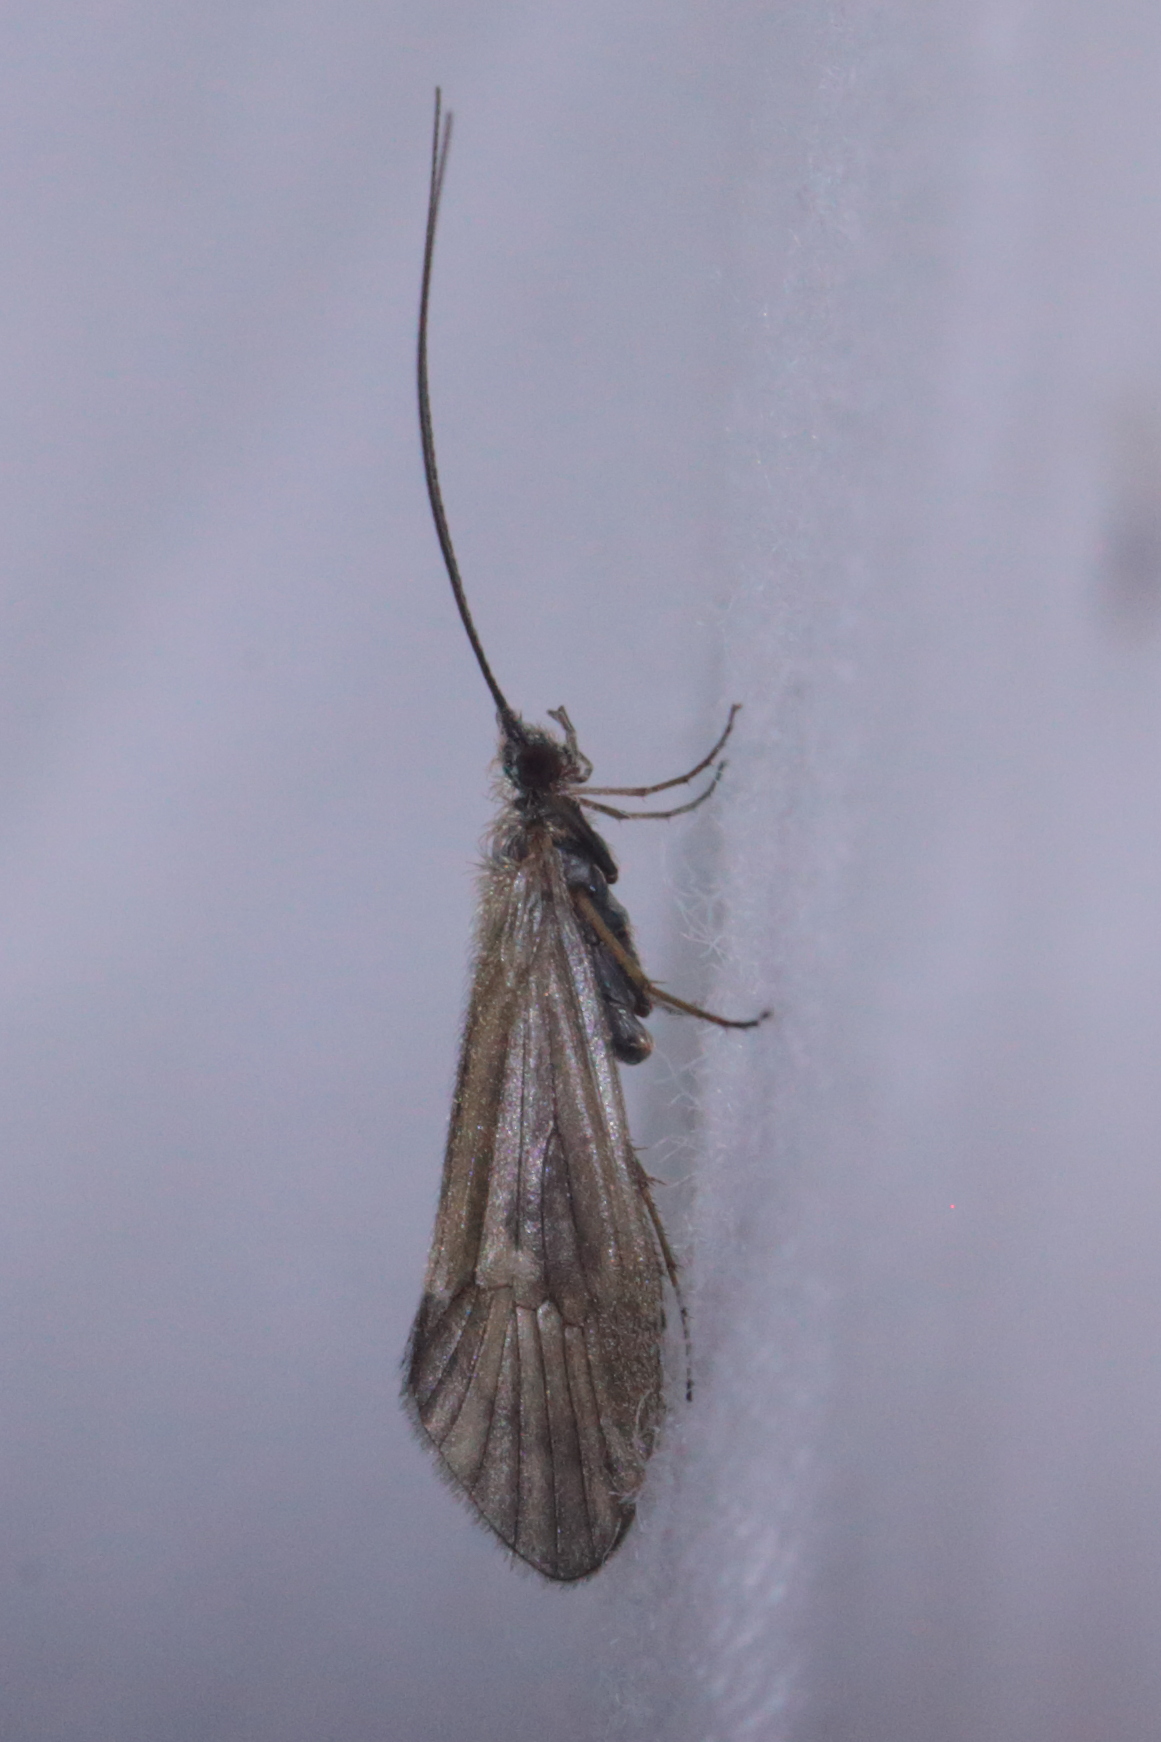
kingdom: Animalia
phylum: Arthropoda
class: Insecta
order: Trichoptera
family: Apataniidae
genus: Apatania
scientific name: Apatania stigmatella
